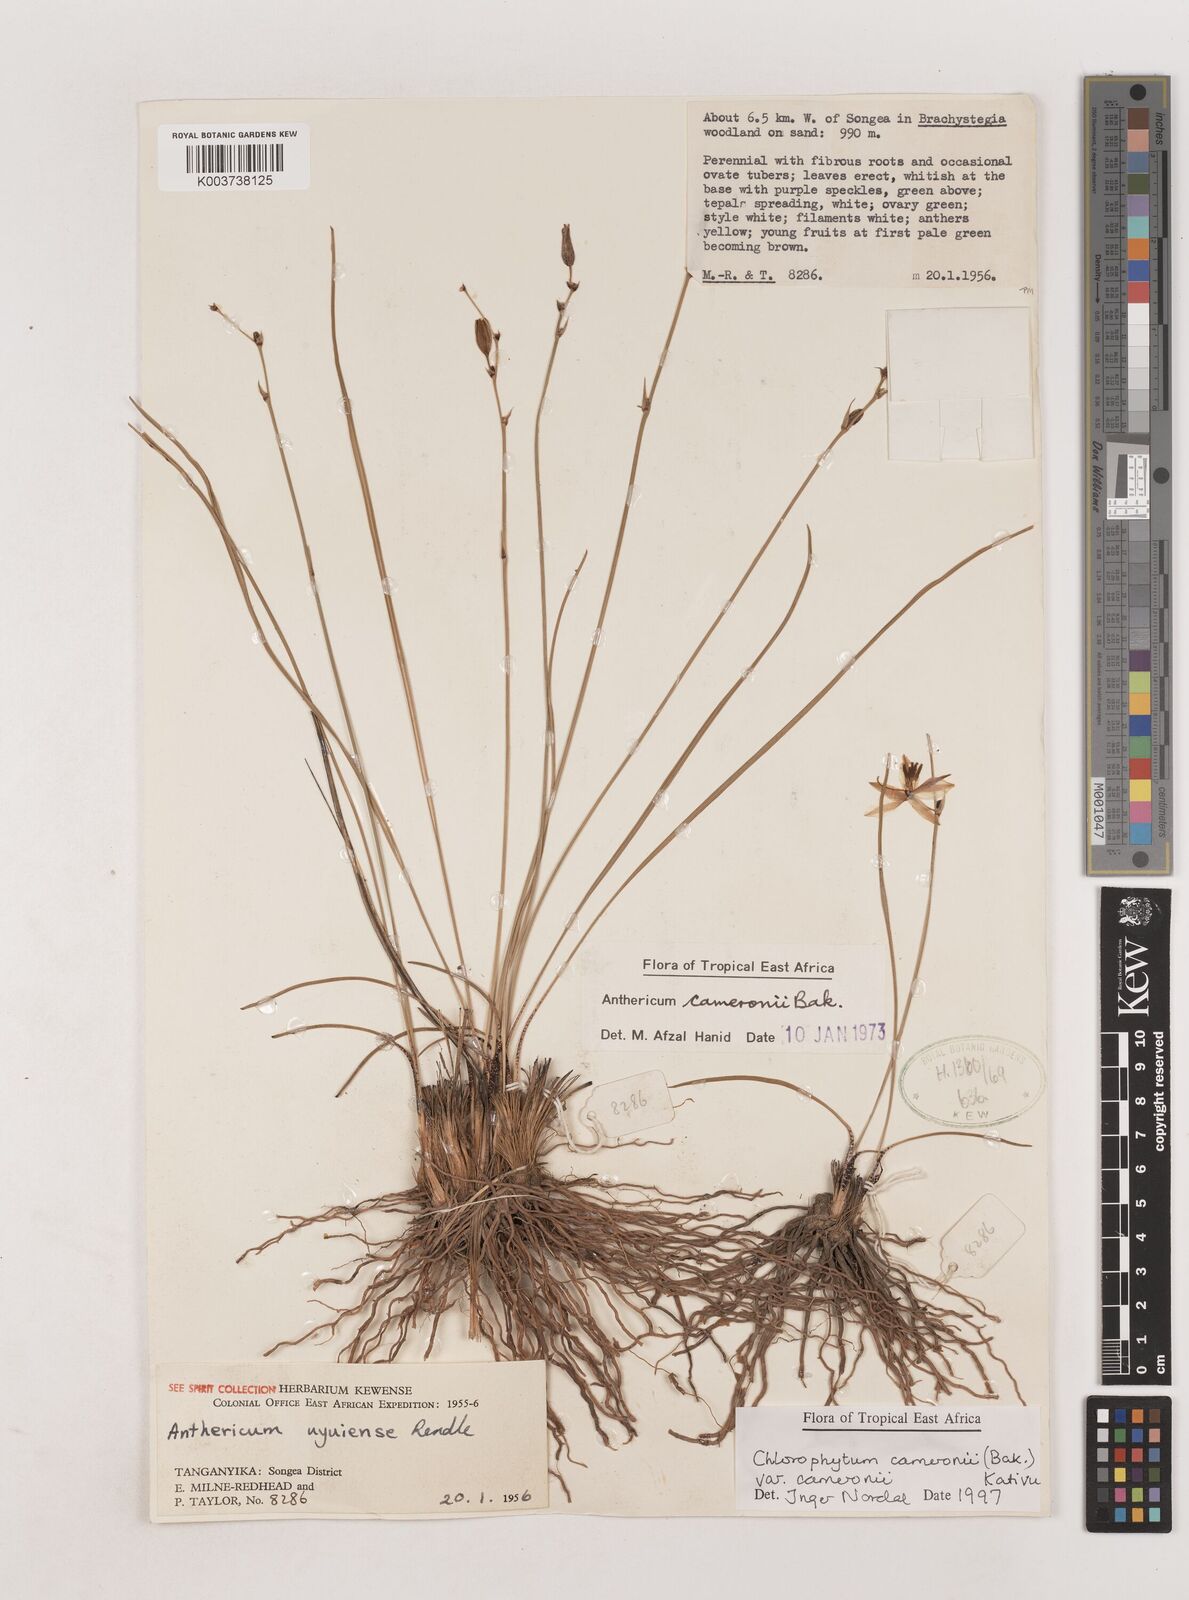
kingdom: Plantae
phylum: Tracheophyta
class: Liliopsida
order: Asparagales
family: Asparagaceae
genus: Chlorophytum
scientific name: Chlorophytum cameronii
